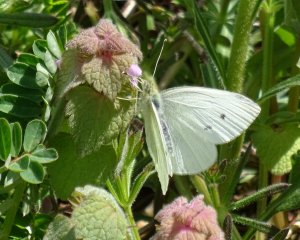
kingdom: Animalia
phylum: Arthropoda
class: Insecta
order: Lepidoptera
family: Pieridae
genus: Pieris
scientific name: Pieris rapae
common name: Cabbage White
